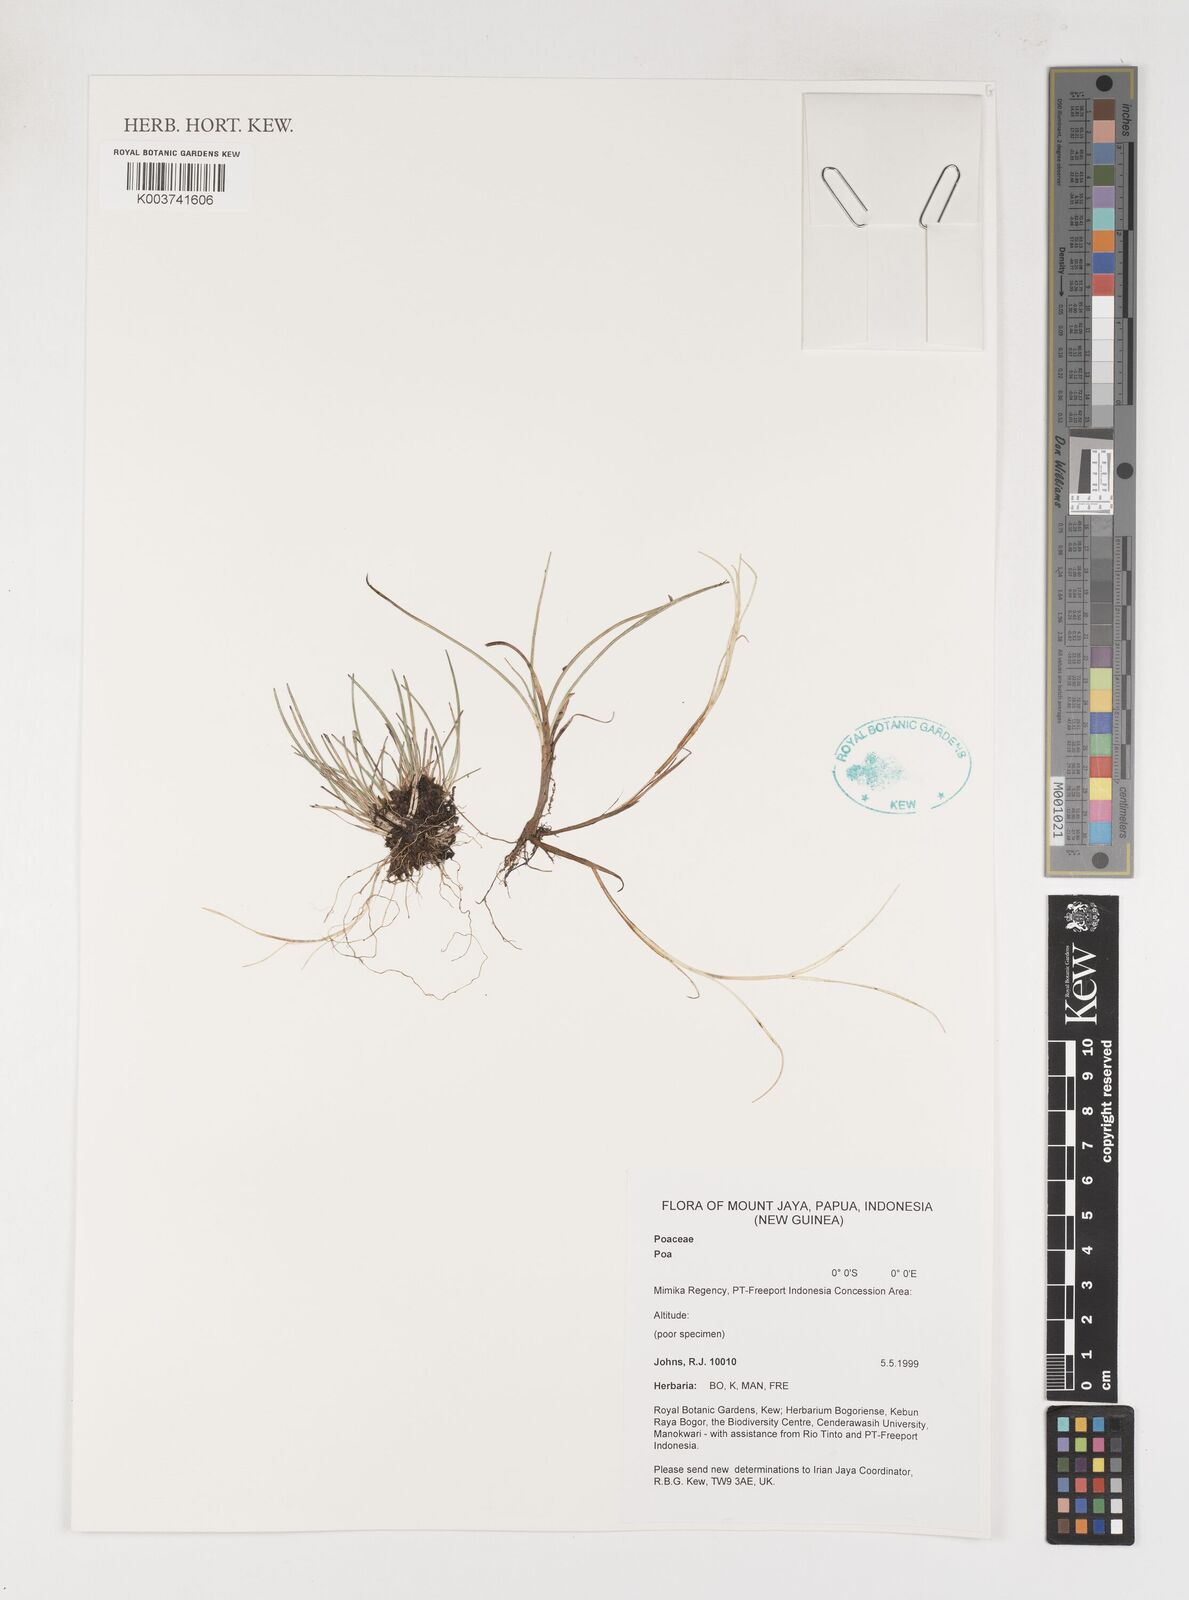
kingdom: Plantae
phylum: Tracheophyta
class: Liliopsida
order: Poales
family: Poaceae
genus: Poa
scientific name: Poa
